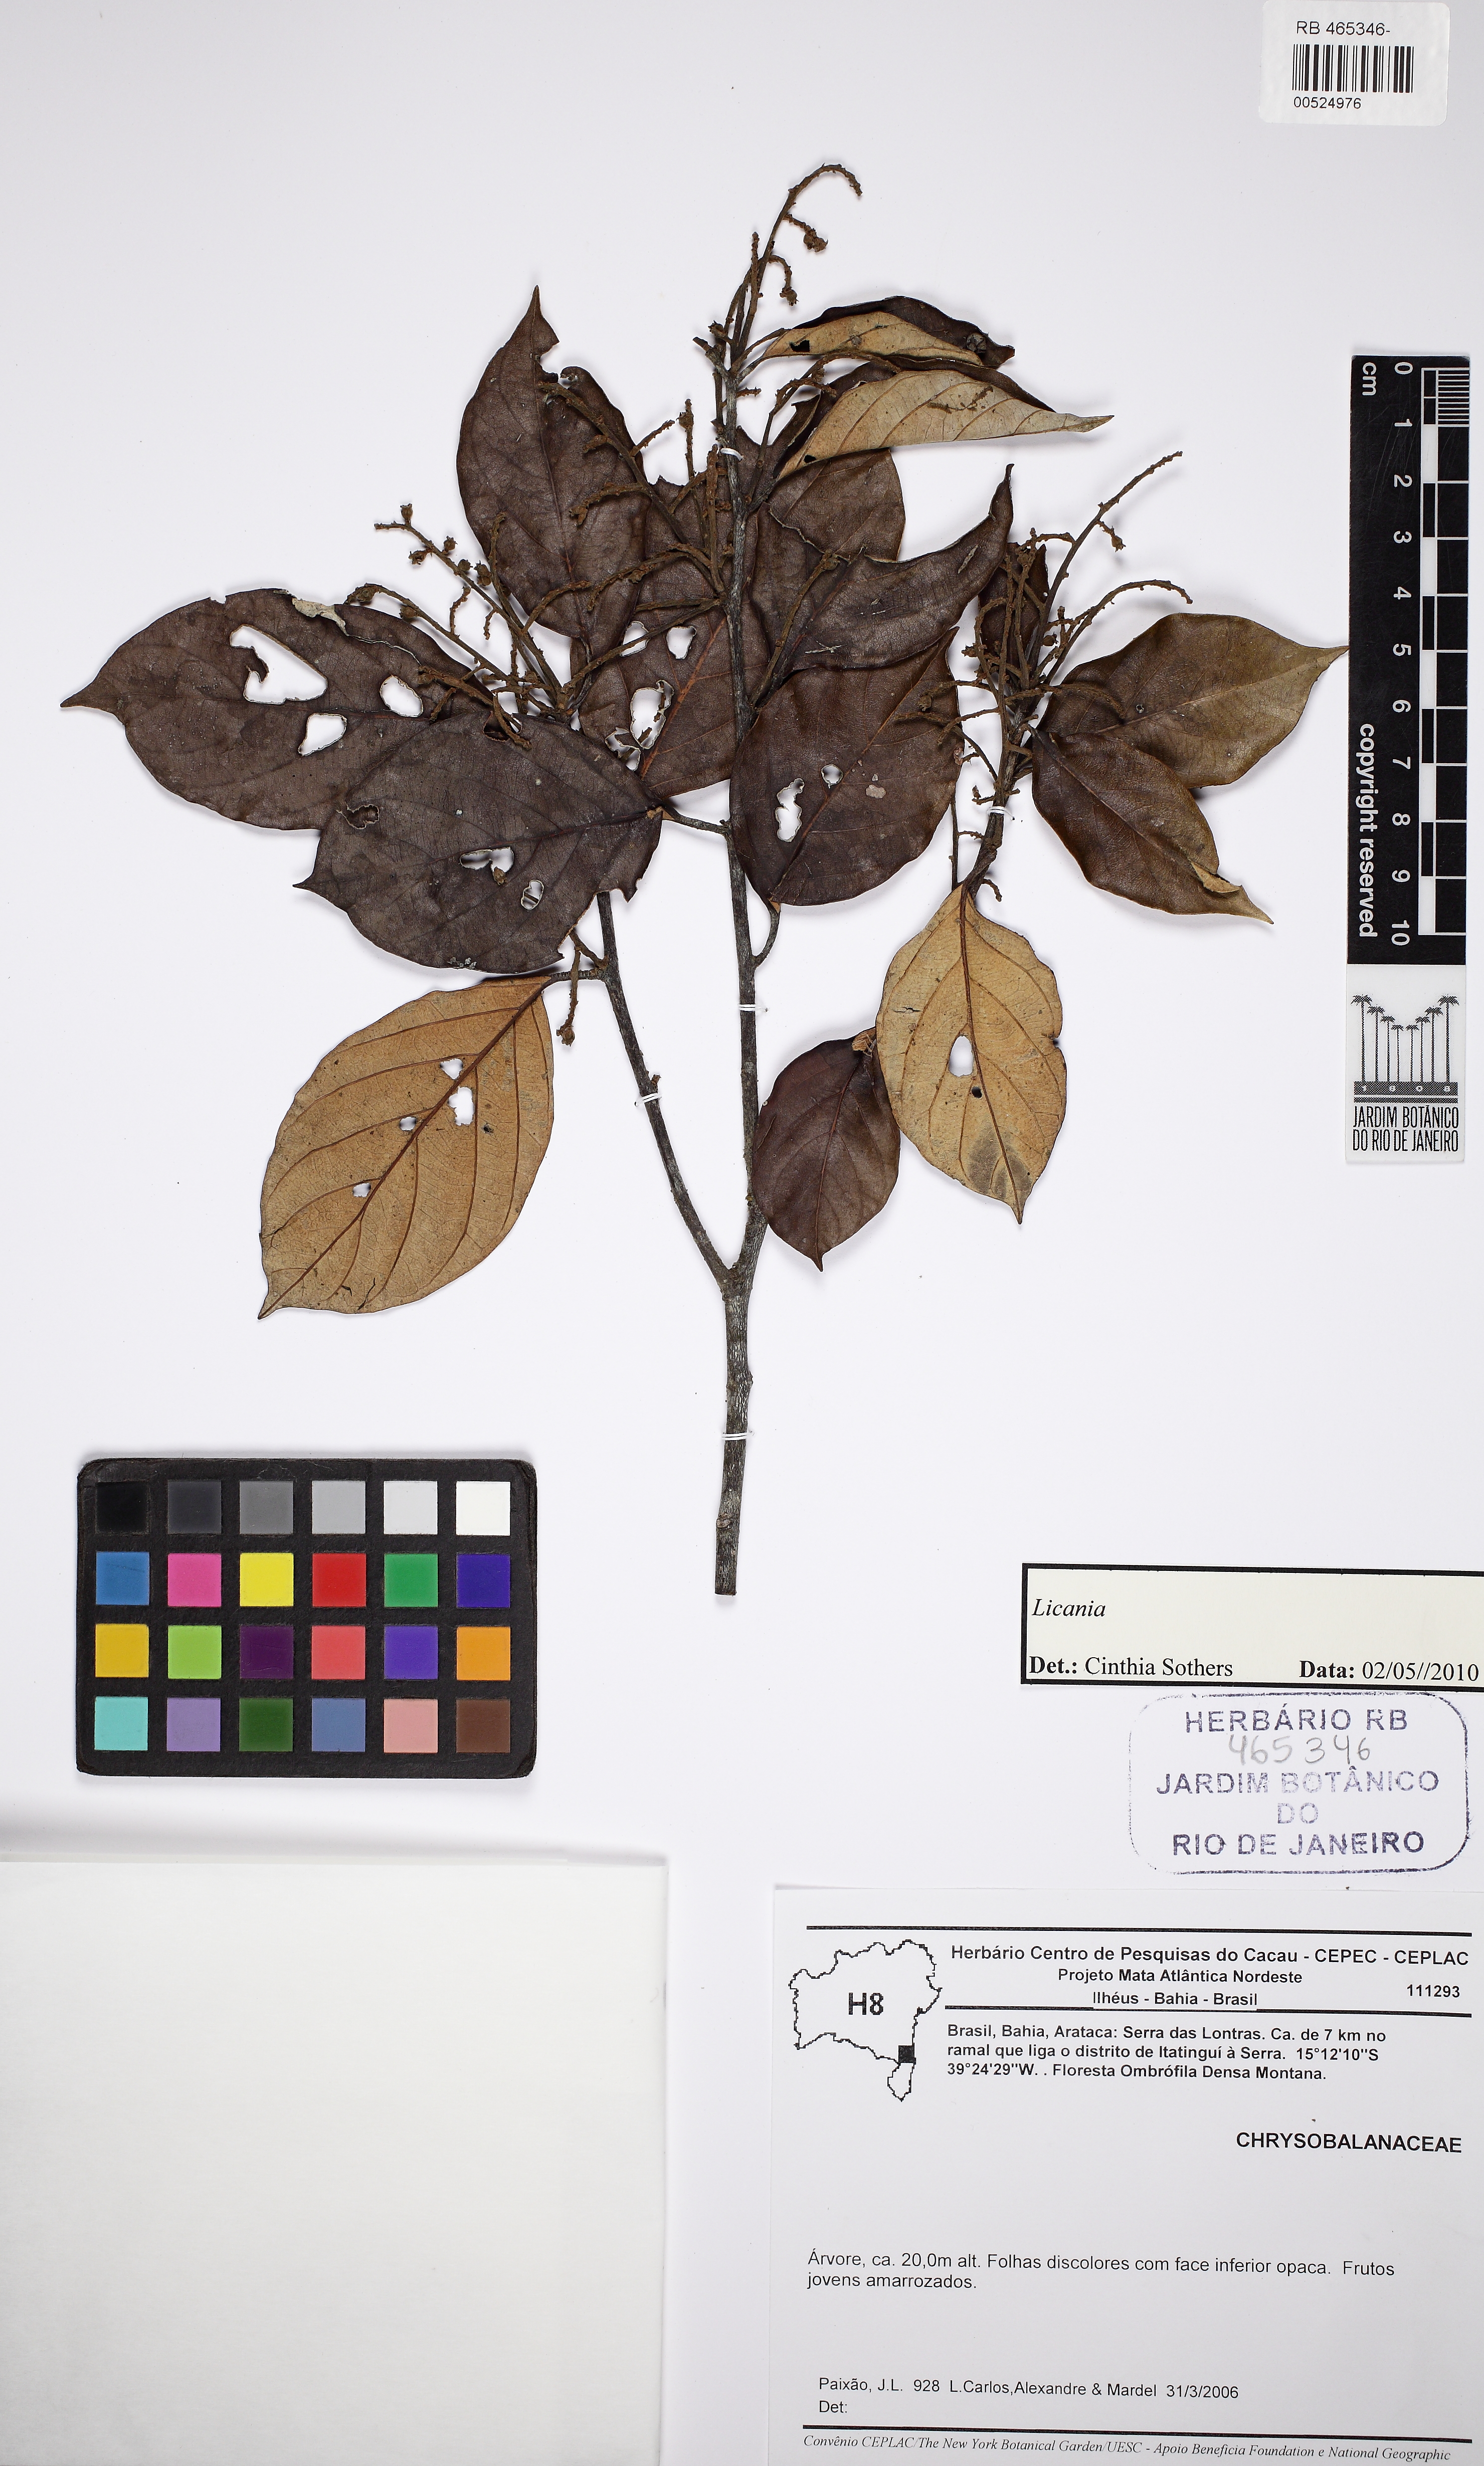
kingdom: Plantae
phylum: Tracheophyta
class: Magnoliopsida
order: Malpighiales
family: Chrysobalanaceae
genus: Licania
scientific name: Licania
